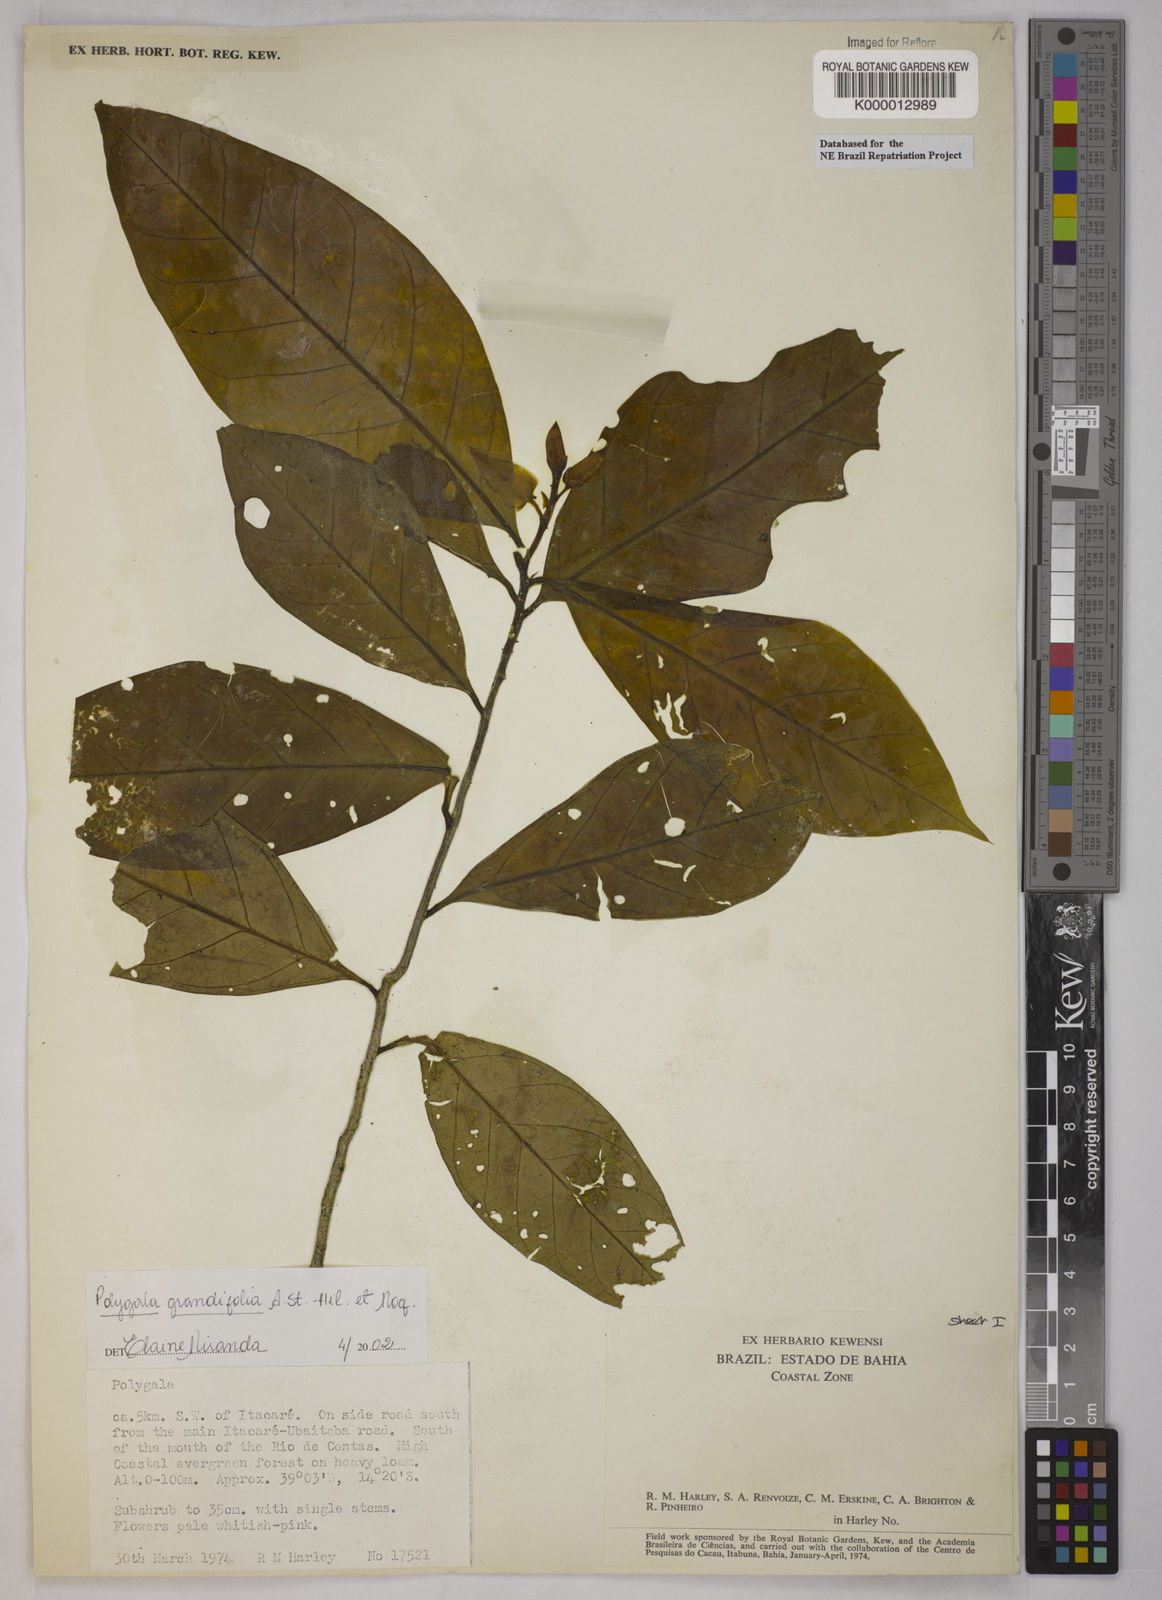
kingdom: Plantae
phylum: Tracheophyta
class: Magnoliopsida
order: Fabales
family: Polygalaceae
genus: Caamembeca
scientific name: Caamembeca grandifolia
